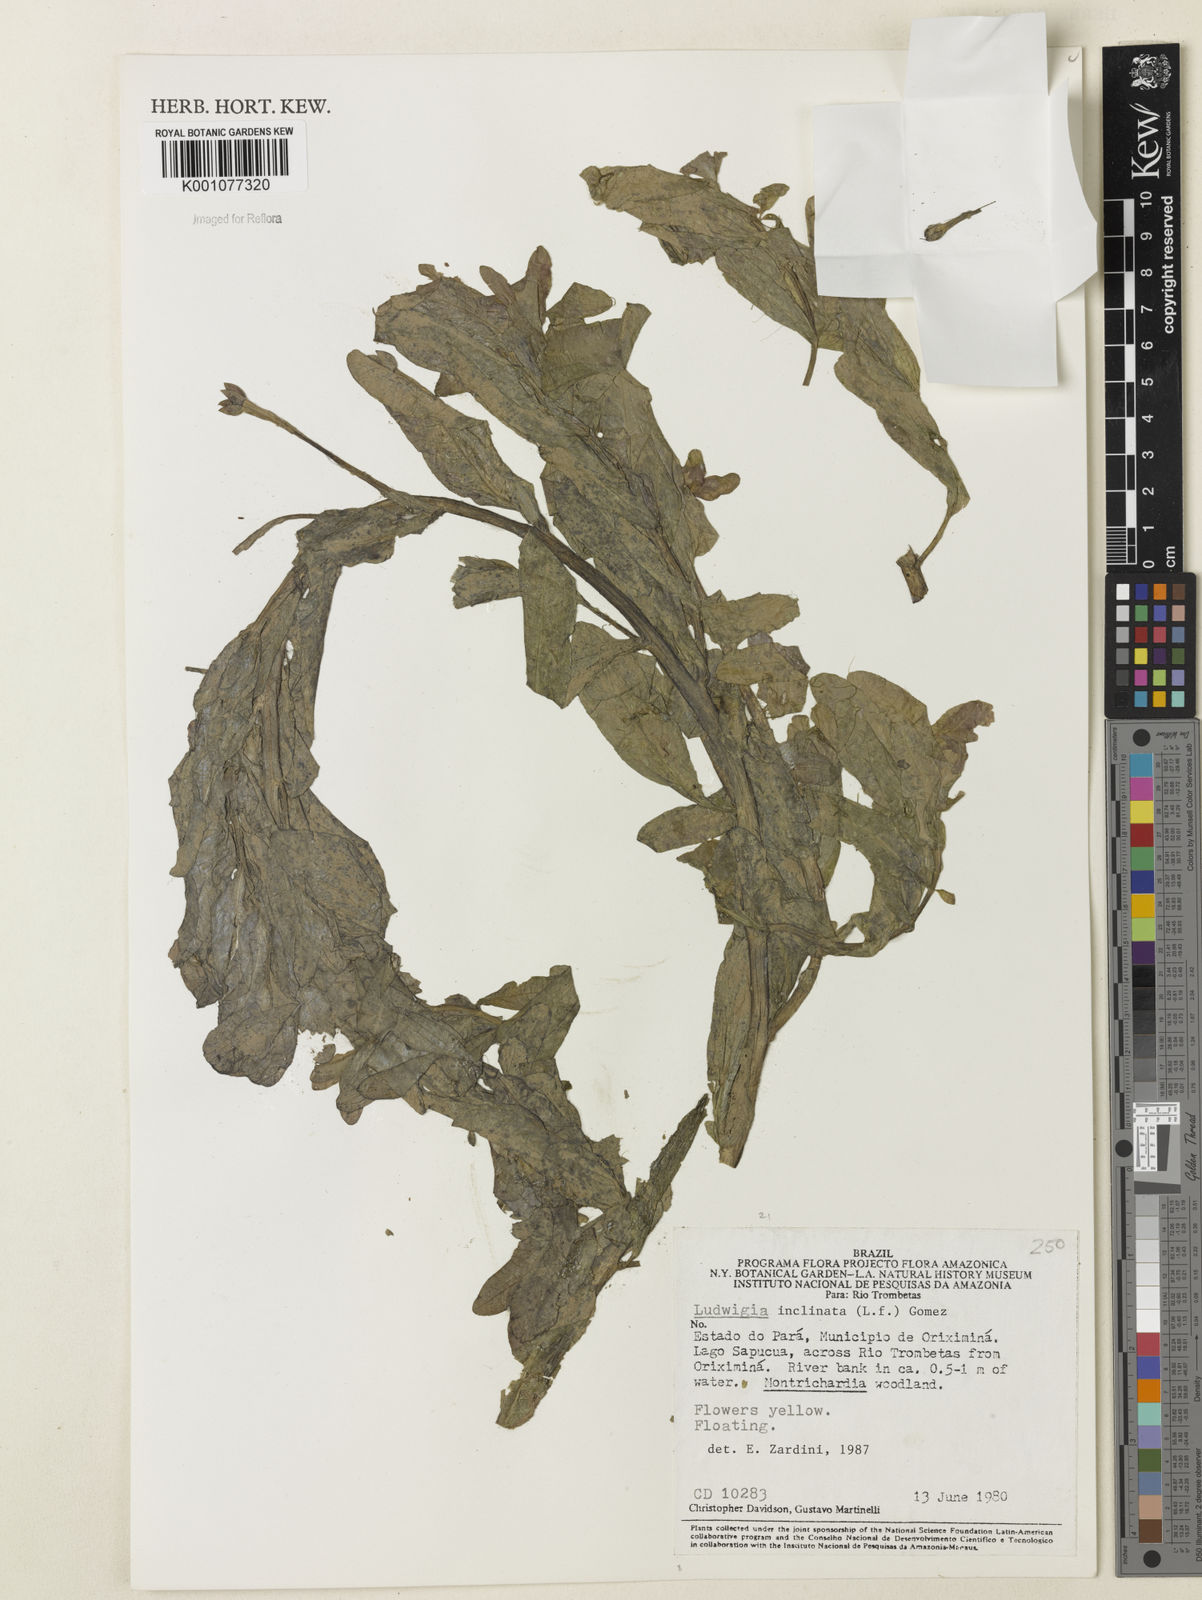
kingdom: Plantae
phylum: Tracheophyta
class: Magnoliopsida
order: Myrtales
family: Onagraceae
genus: Ludwigia
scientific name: Ludwigia
